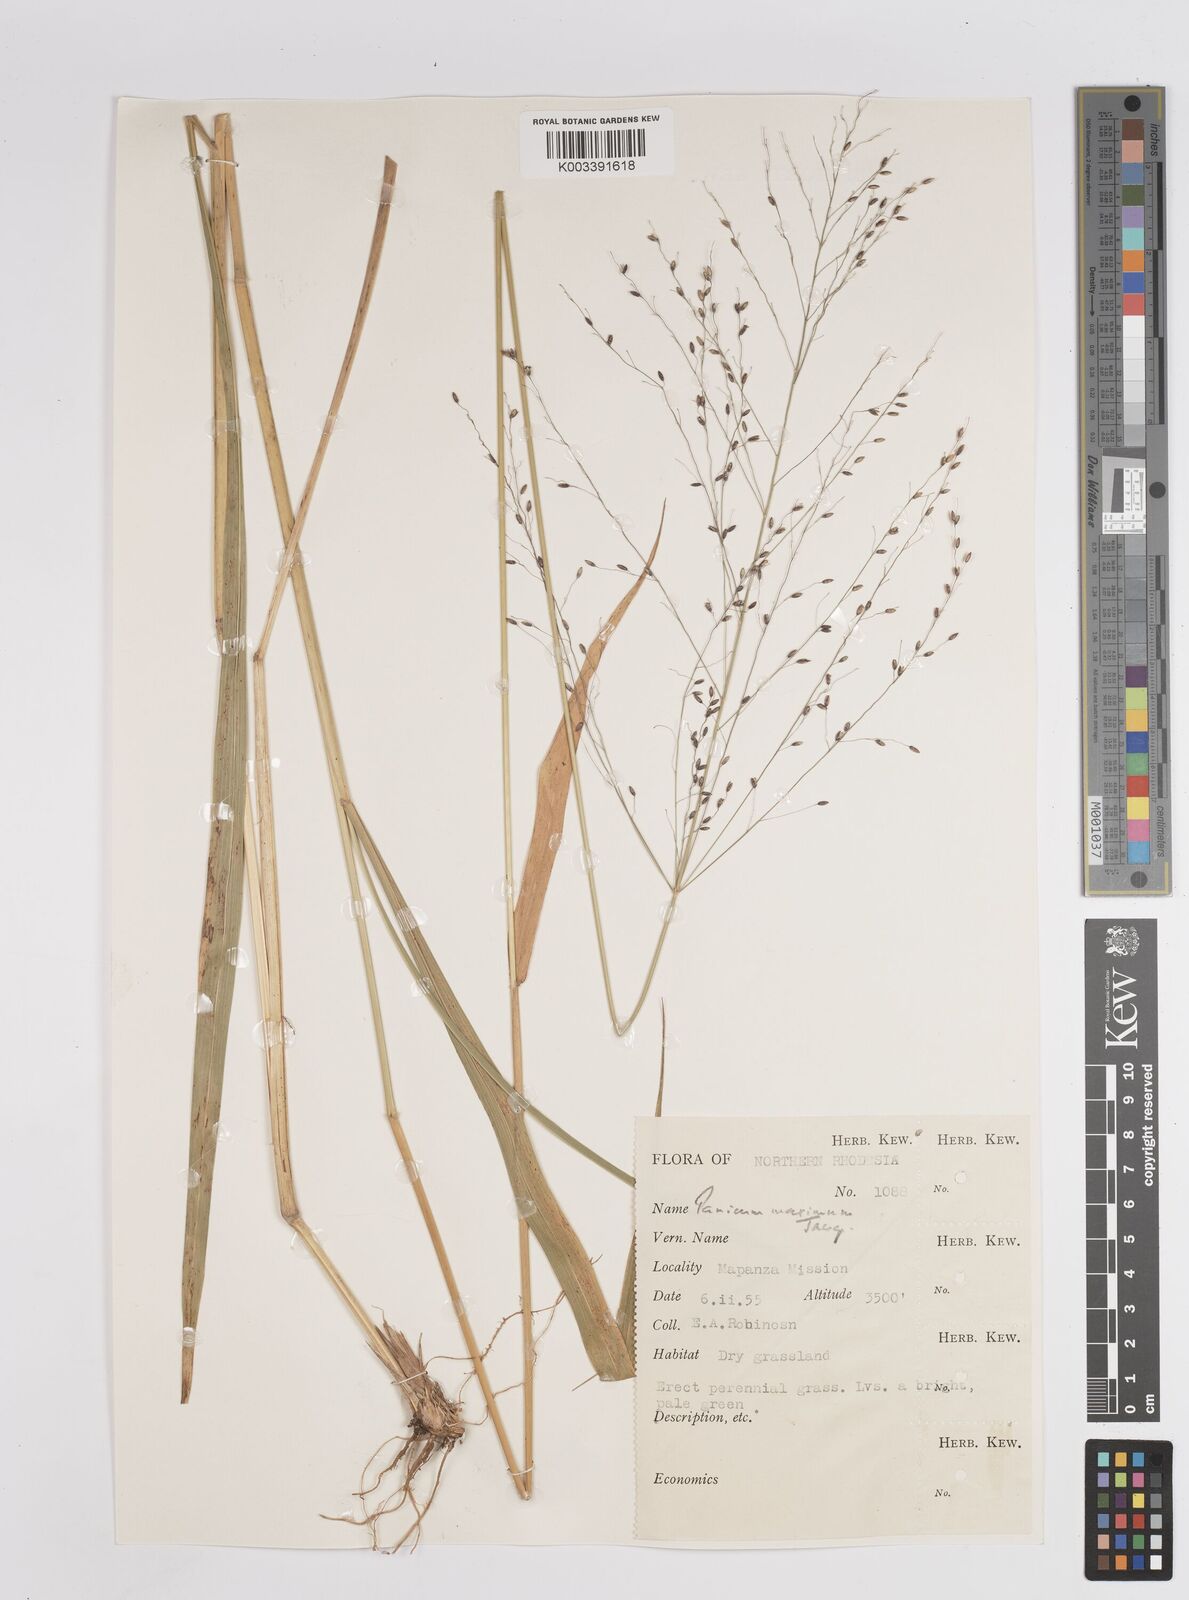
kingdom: Plantae
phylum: Tracheophyta
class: Liliopsida
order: Poales
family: Poaceae
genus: Megathyrsus
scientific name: Megathyrsus maximus
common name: Guineagrass
